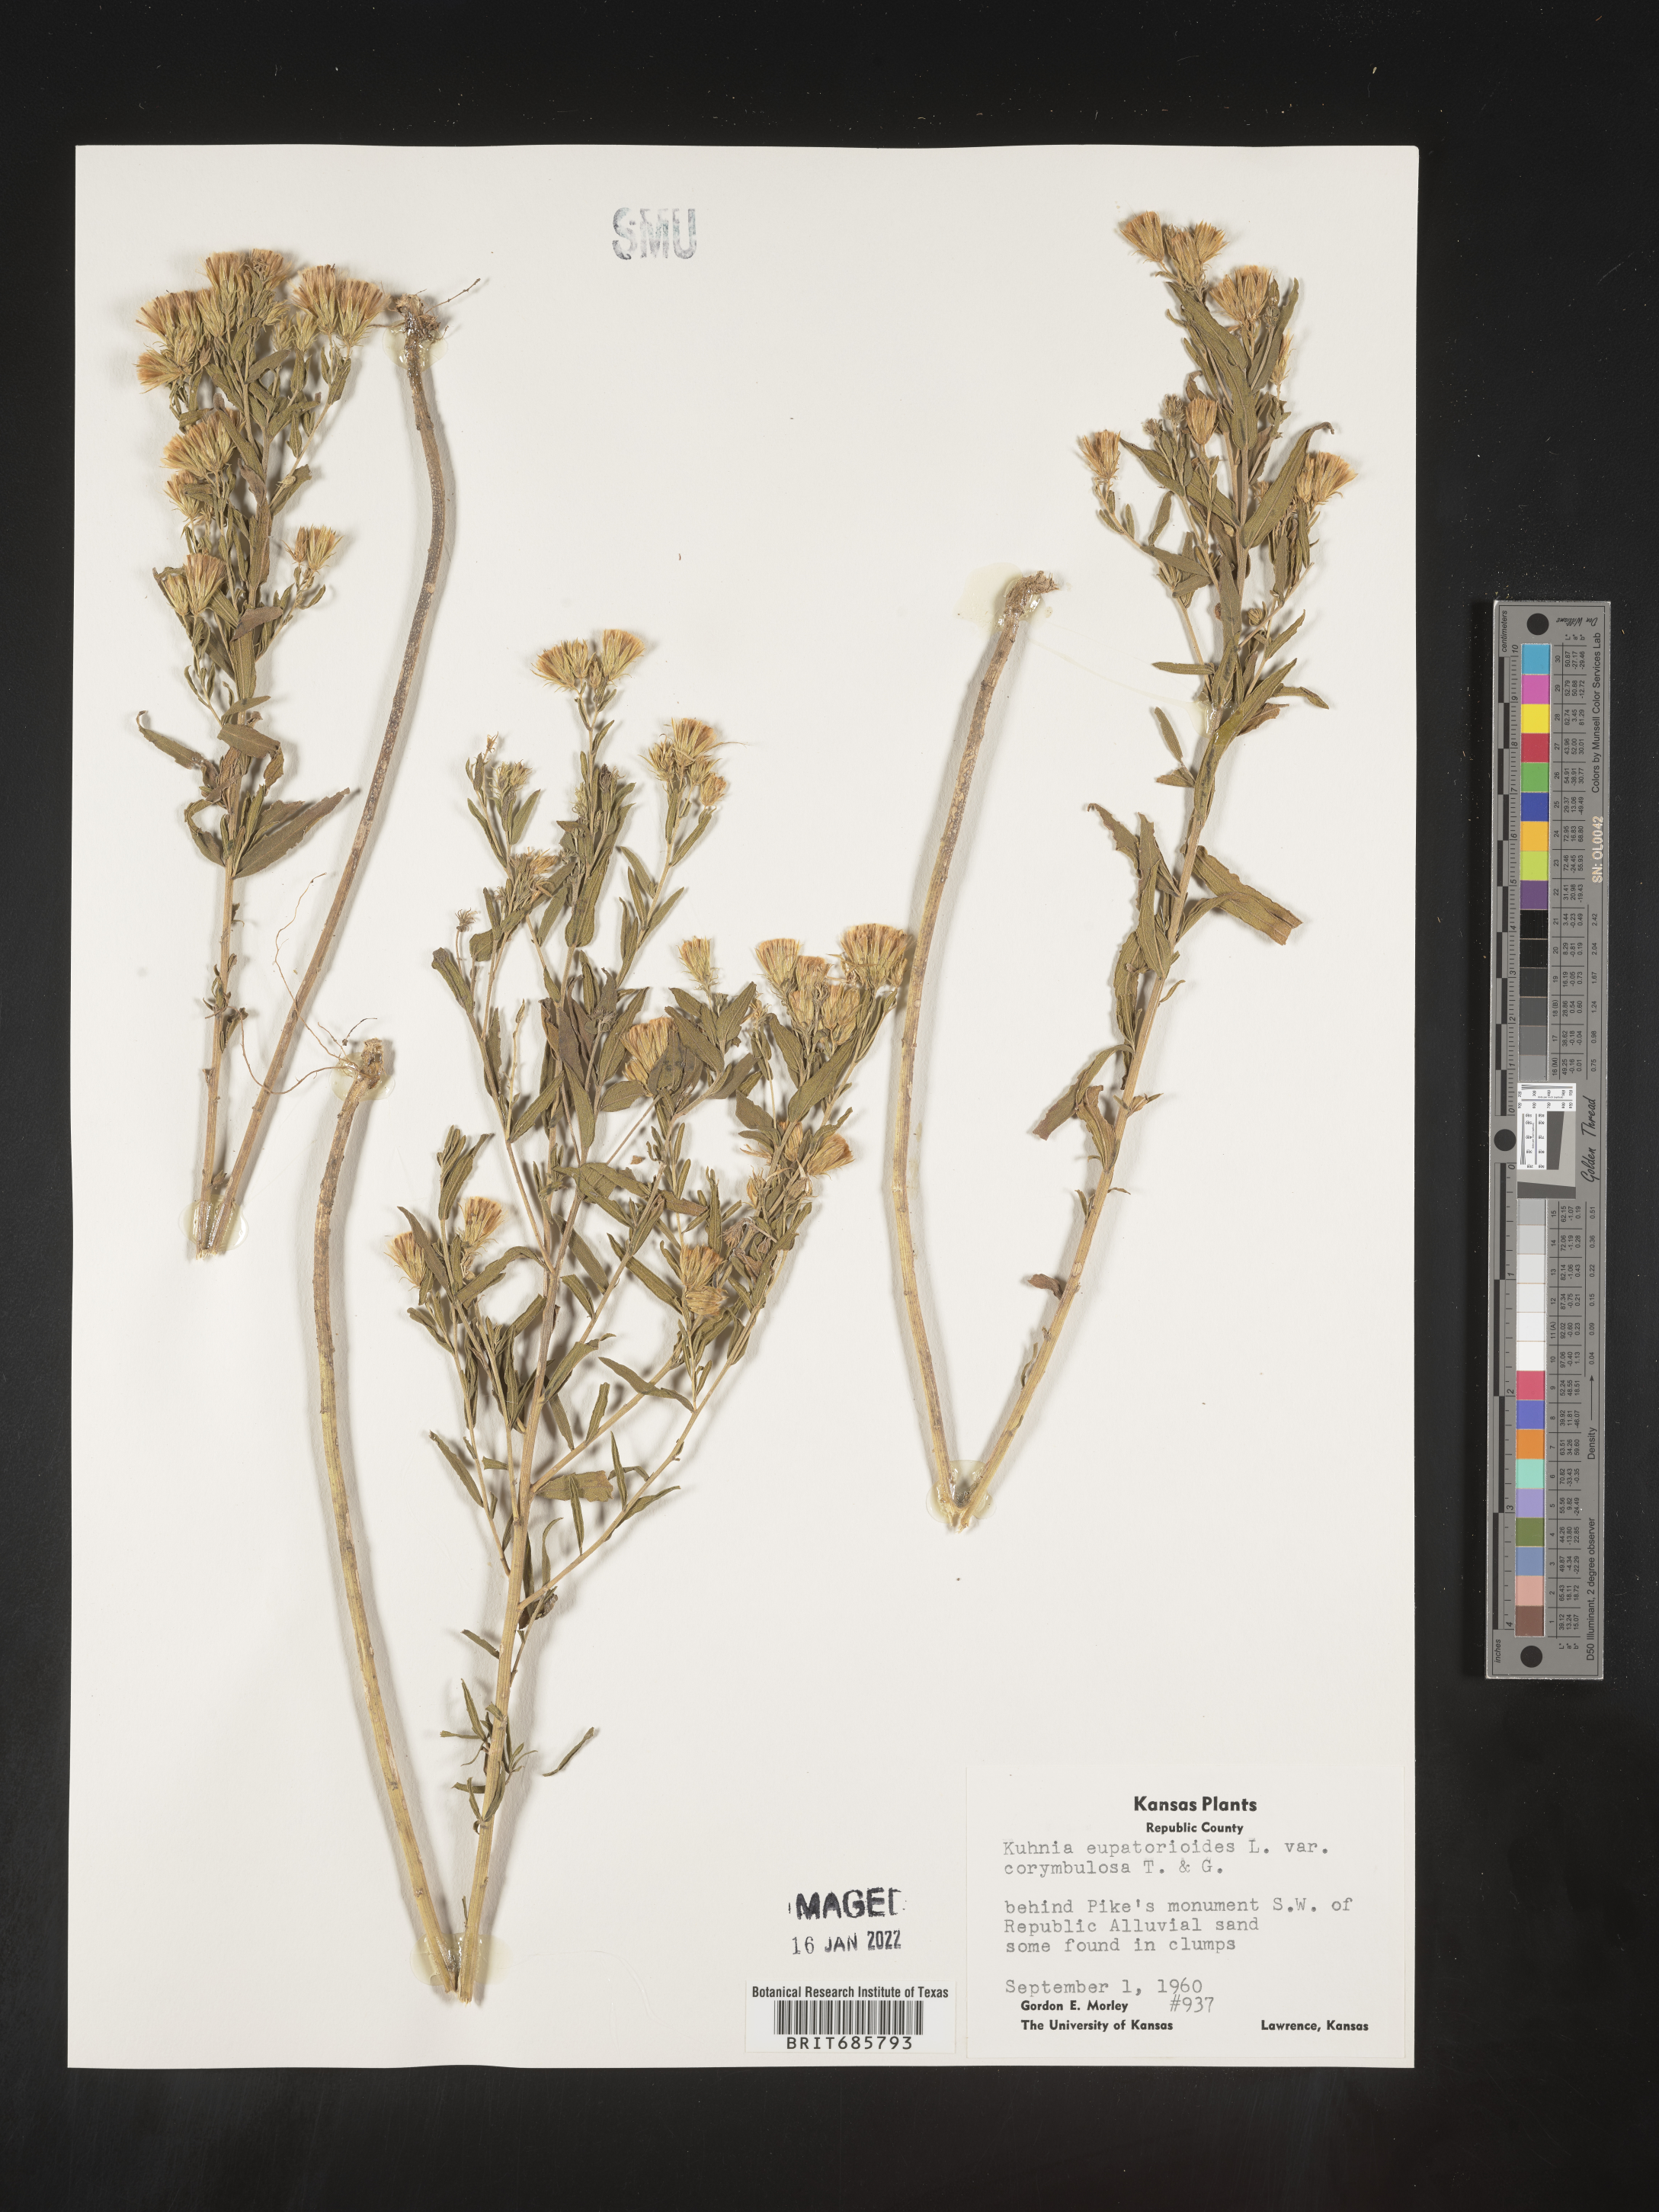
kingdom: Plantae
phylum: Tracheophyta
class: Magnoliopsida
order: Asterales
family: Asteraceae
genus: Brickellia
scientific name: Brickellia eupatorioides
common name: False boneset
